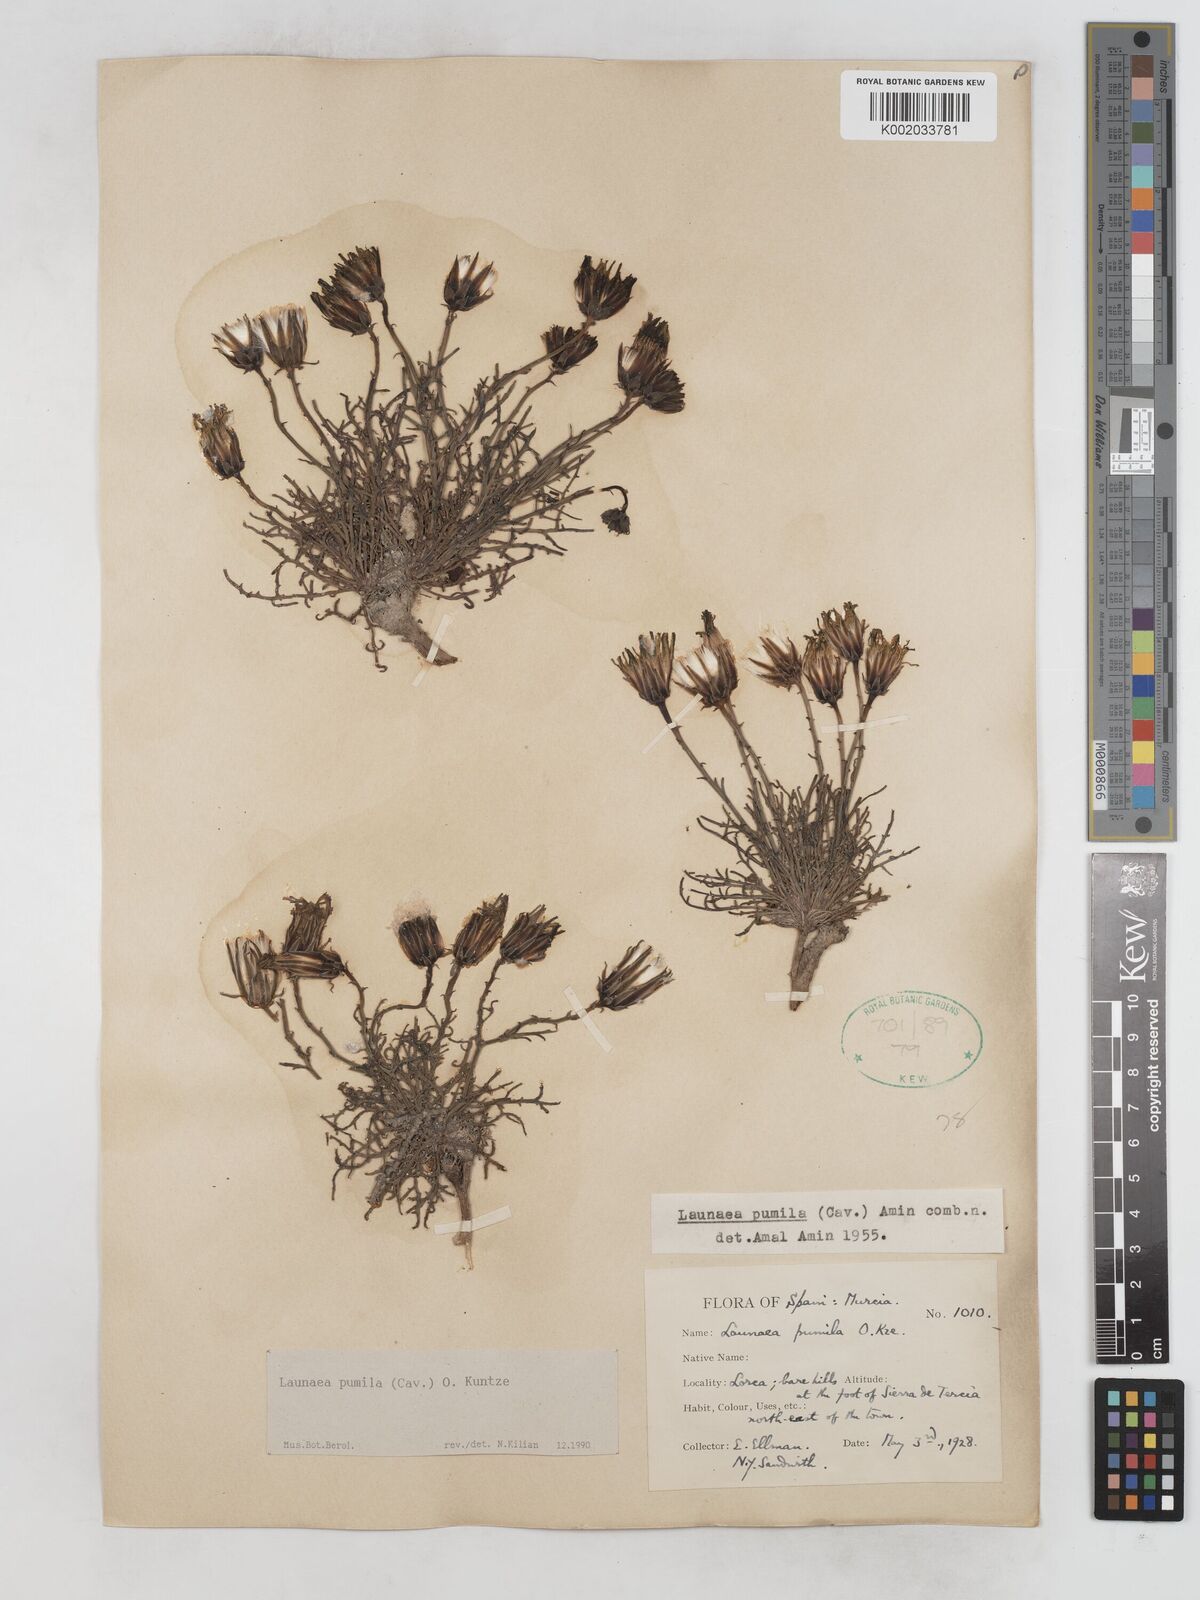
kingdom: Plantae
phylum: Tracheophyta
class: Magnoliopsida
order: Asterales
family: Asteraceae
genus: Launaea
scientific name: Launaea pumila
